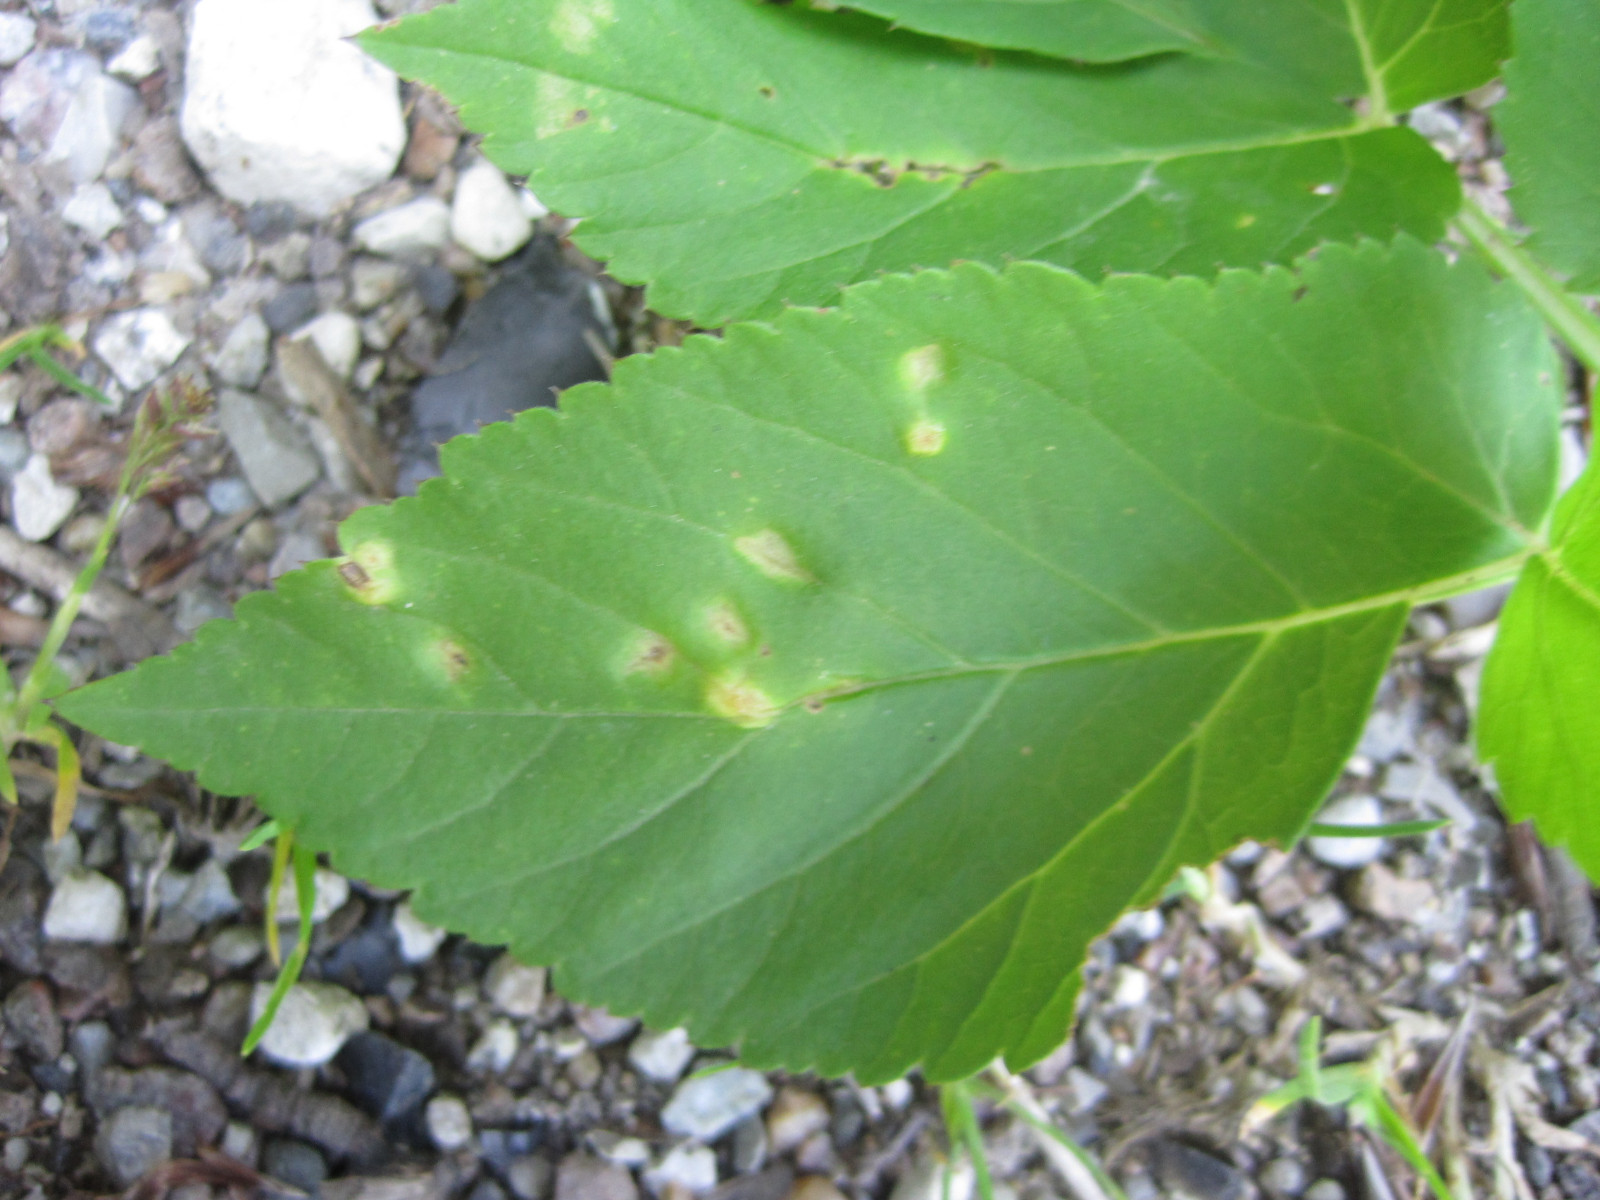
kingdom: Fungi
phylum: Ascomycota
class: Taphrinomycetes
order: Taphrinales
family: Taphrinaceae
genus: Protomyces
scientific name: Protomyces macrosporus
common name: skvalderkål-vablesæk
